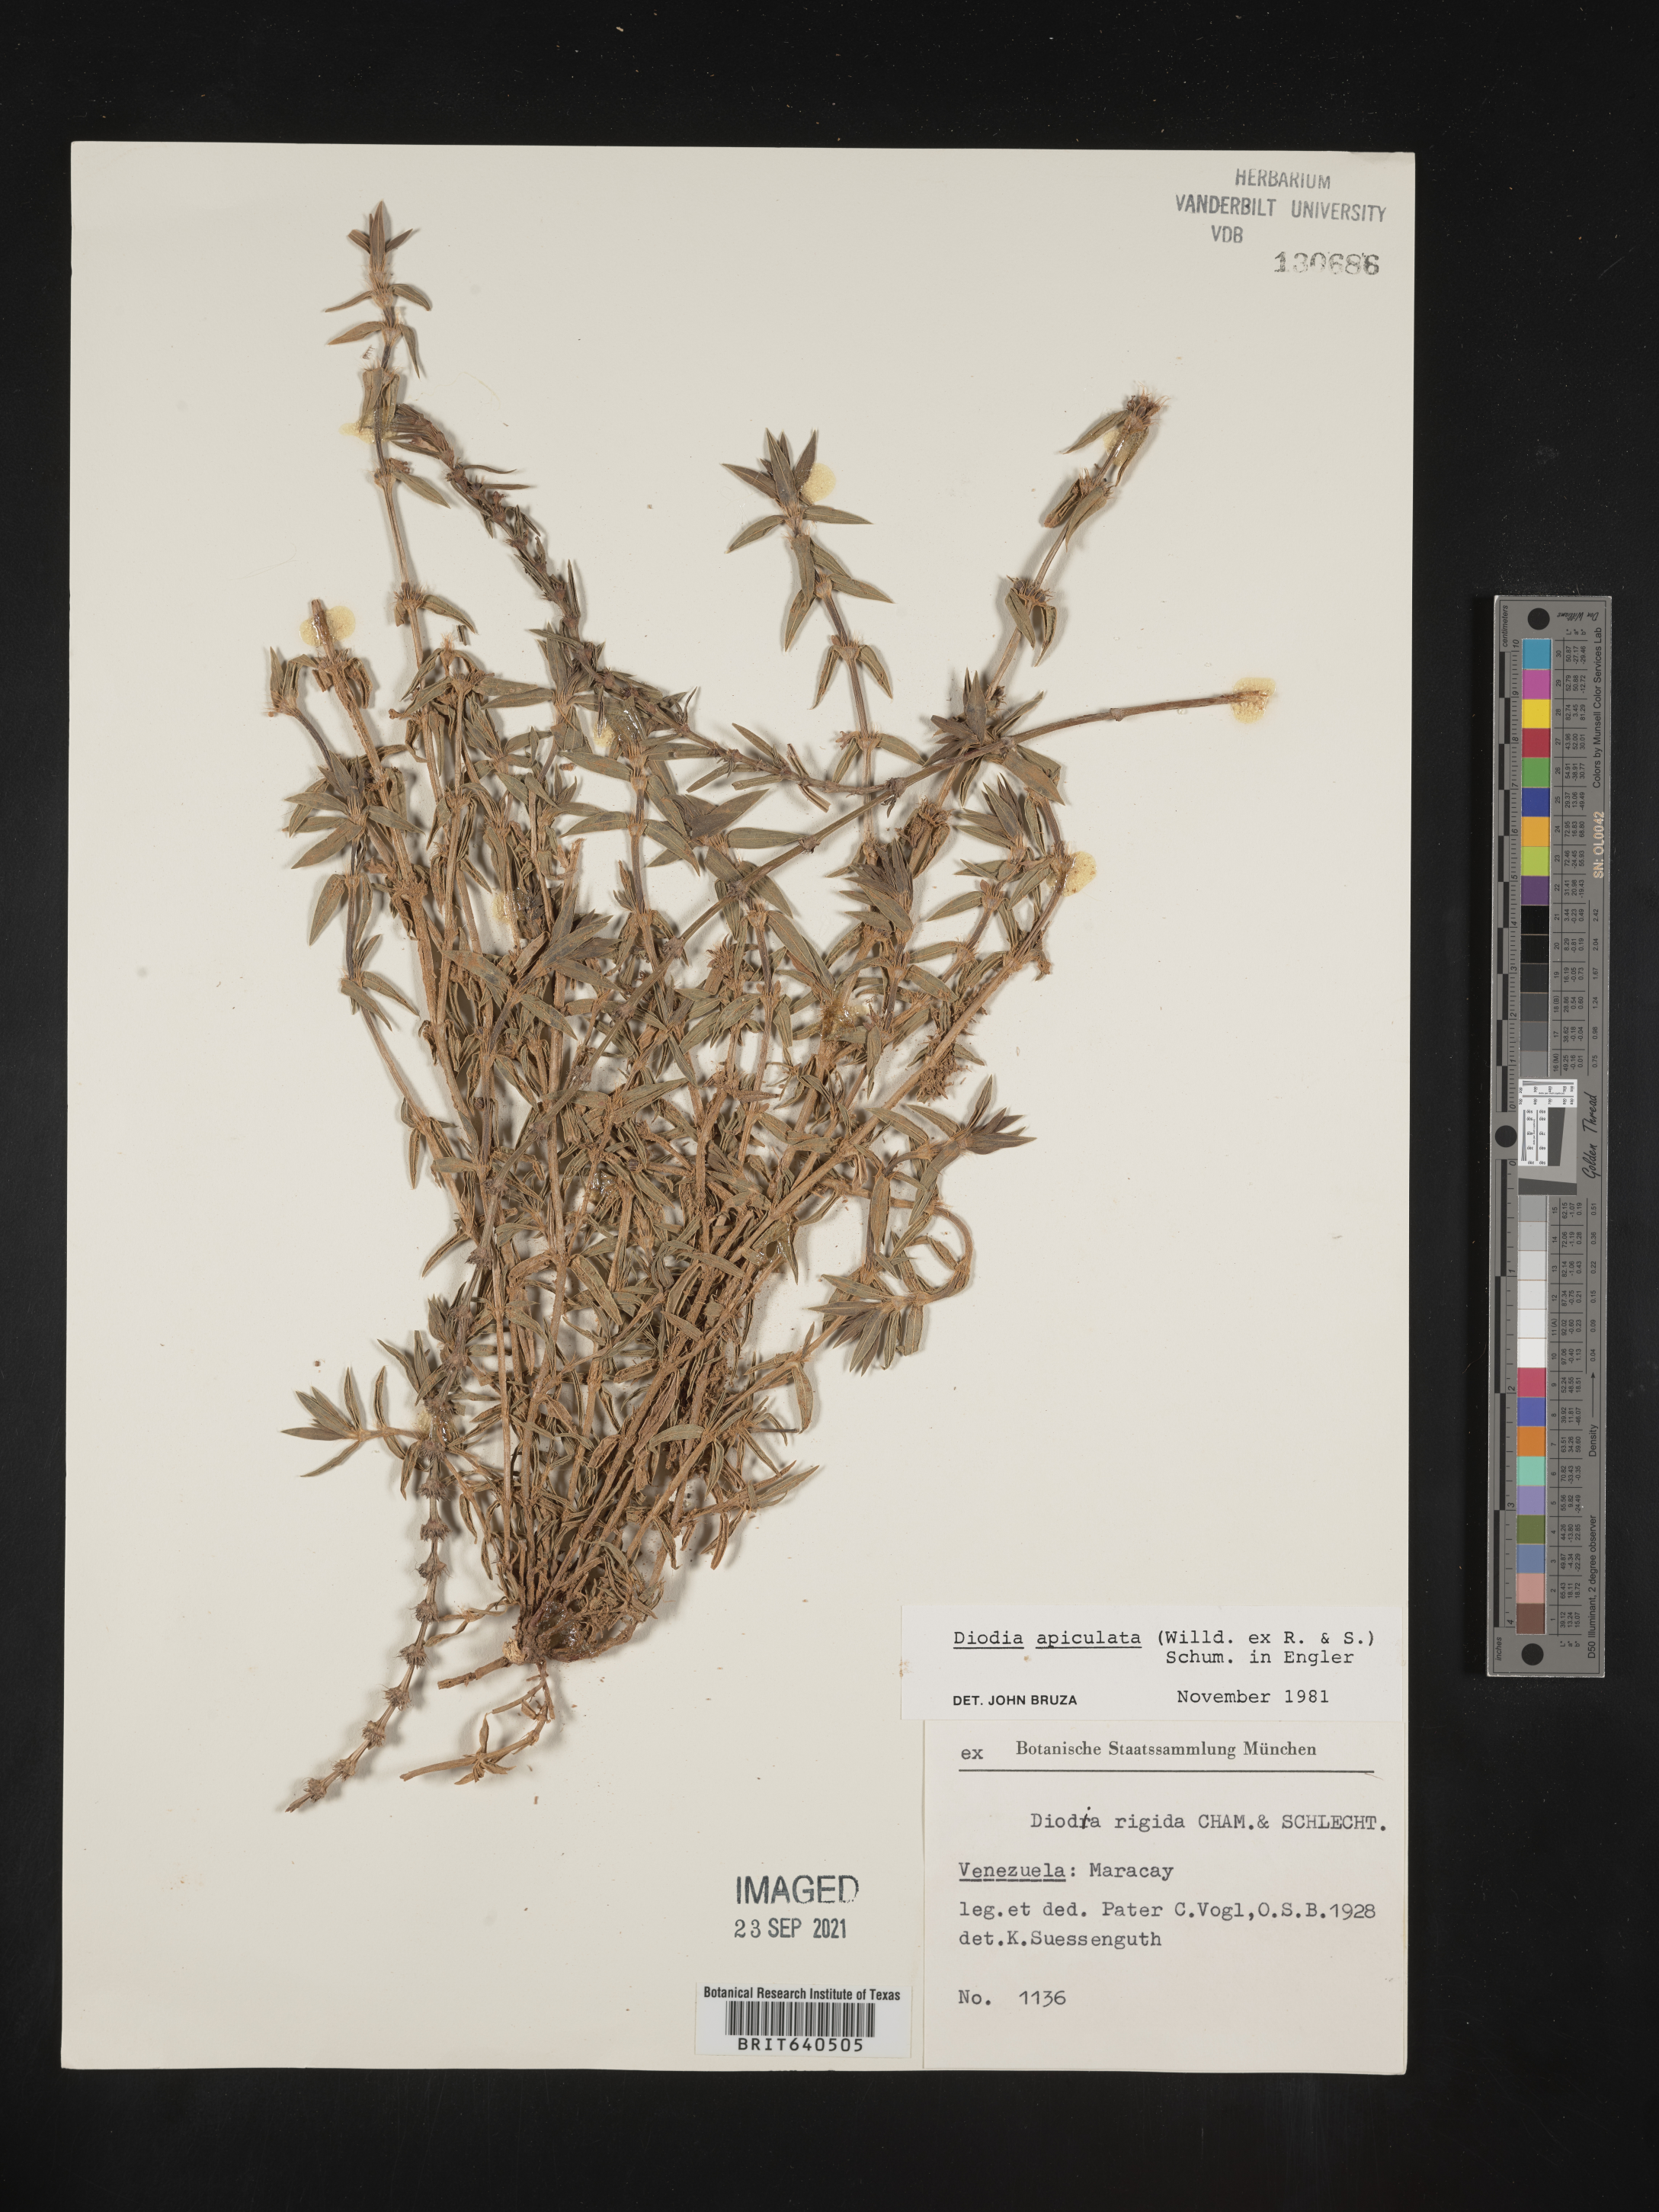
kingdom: Plantae
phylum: Tracheophyta
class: Magnoliopsida
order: Gentianales
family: Rubiaceae
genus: Diodia
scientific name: Diodia
